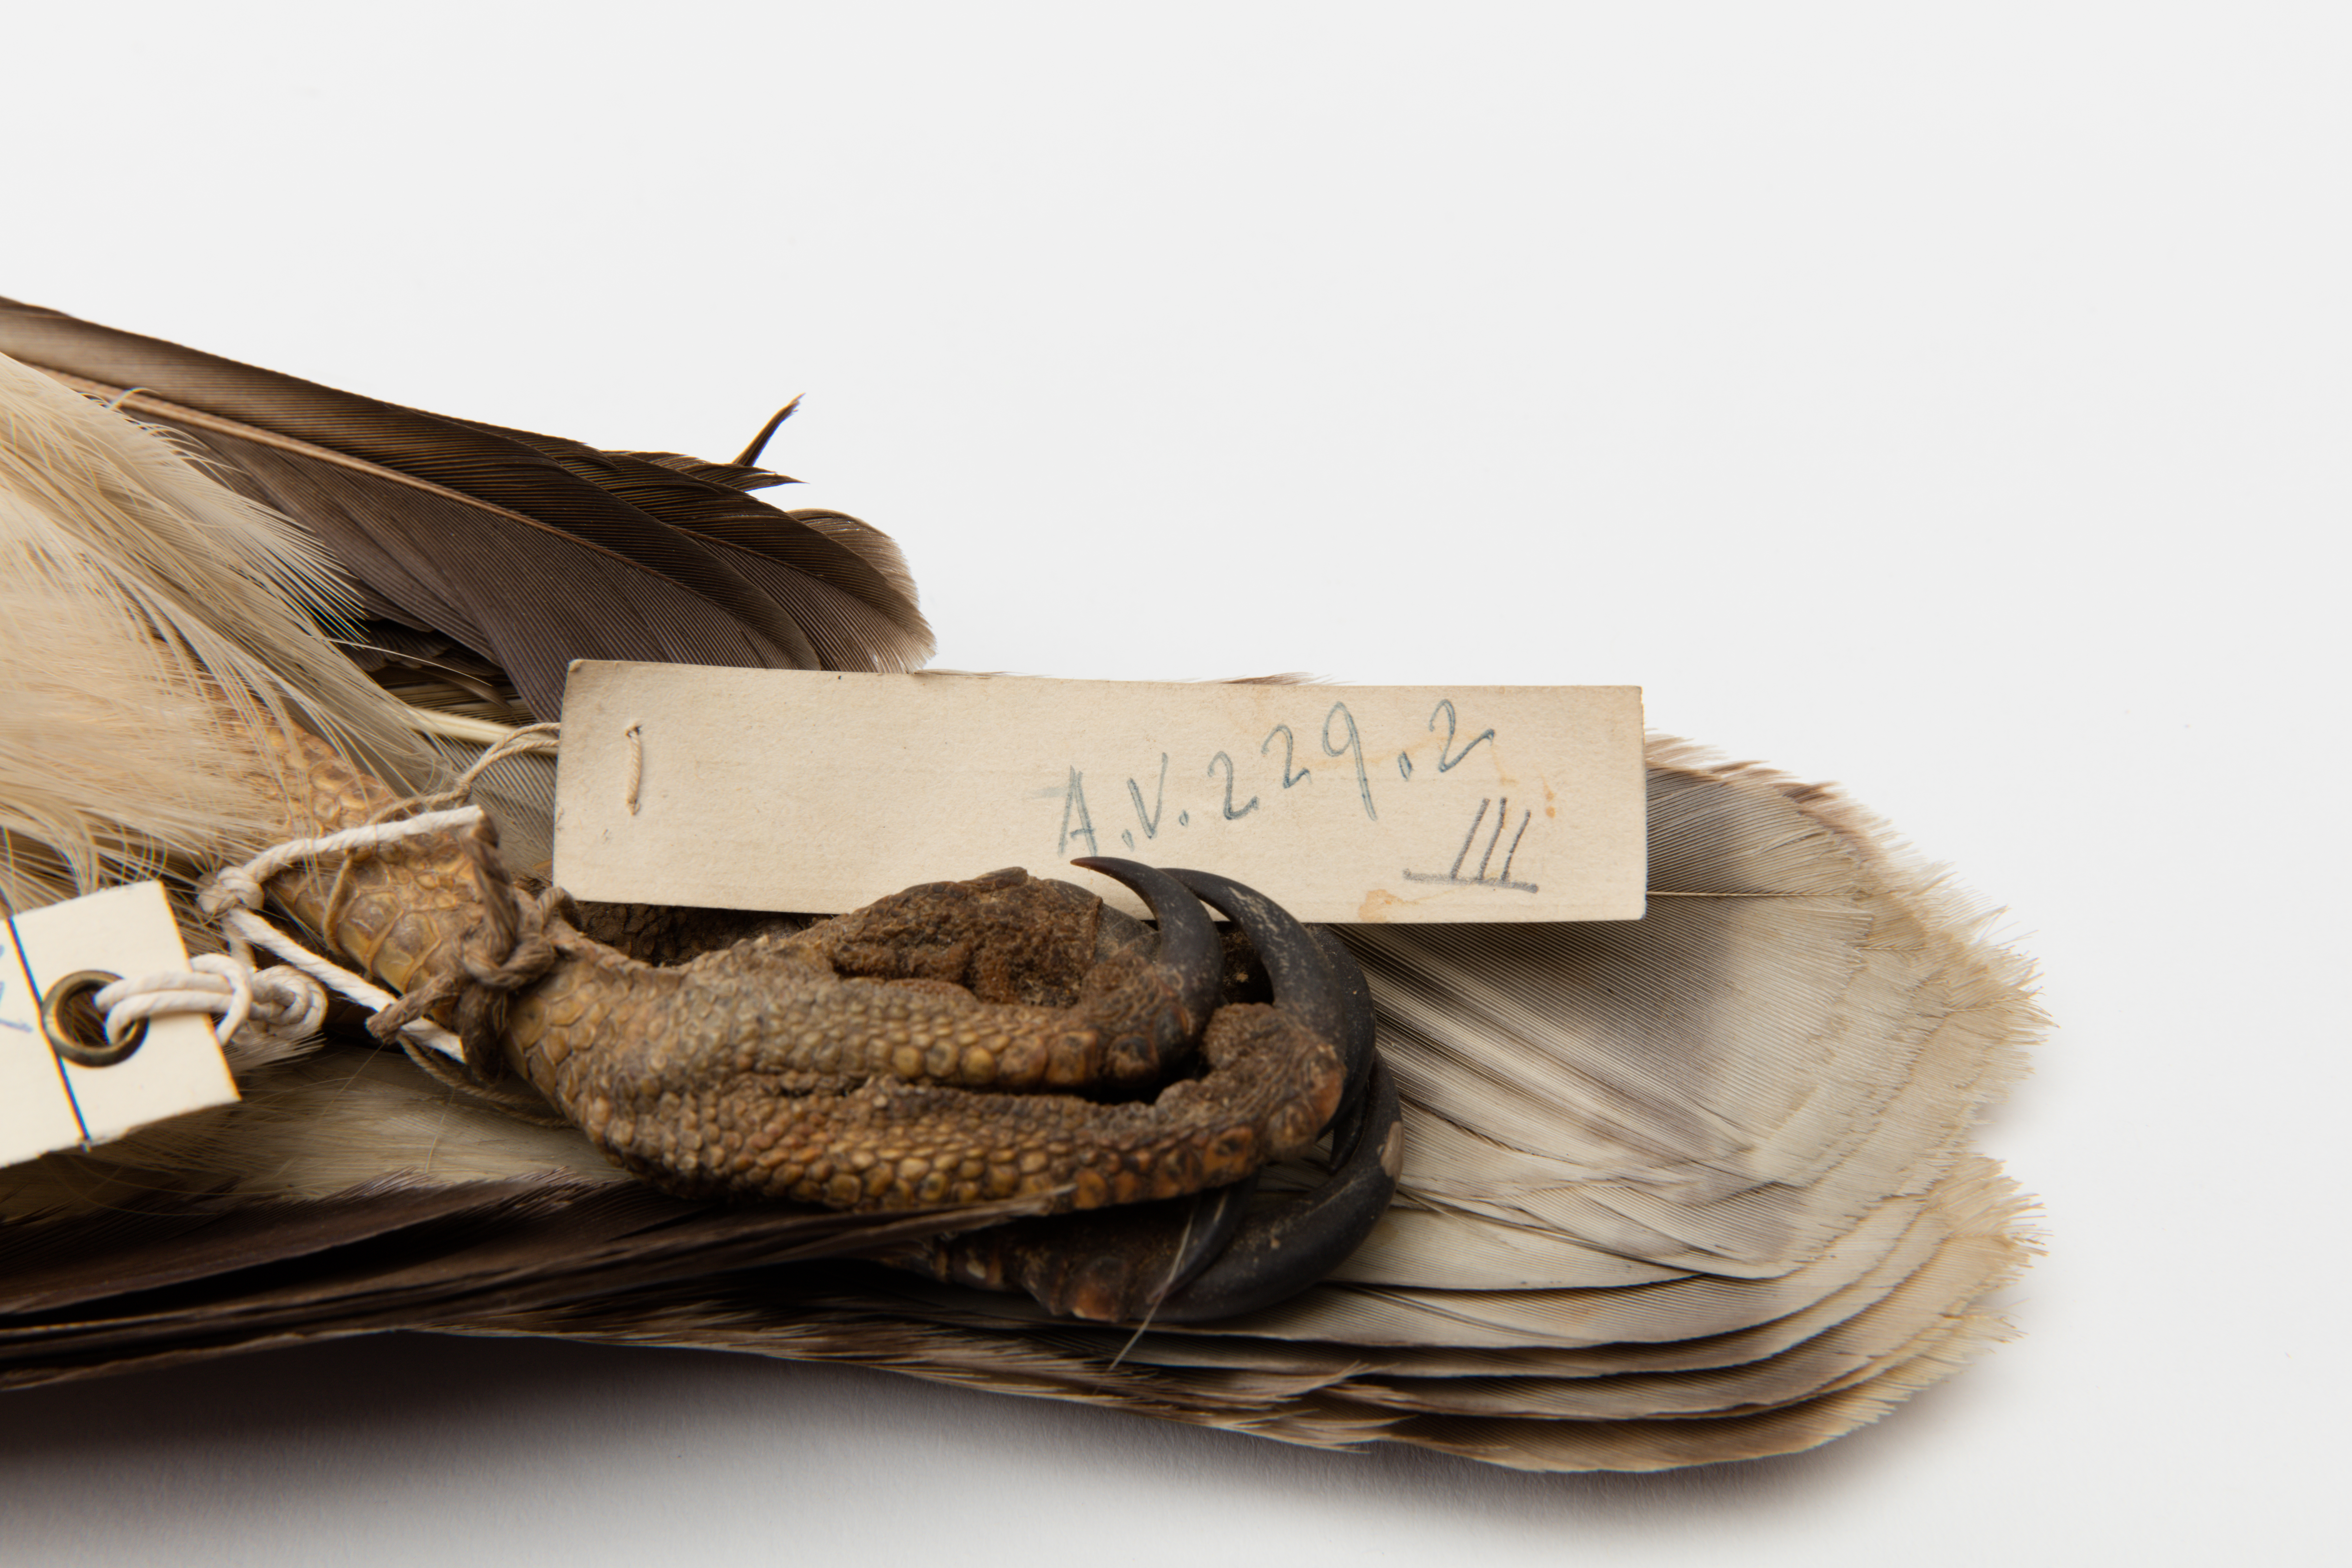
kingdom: Animalia
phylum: Chordata
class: Aves
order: Accipitriformes
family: Accipitridae
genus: Buteo
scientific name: Buteo jamaicensis
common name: Red-tailed hawk
